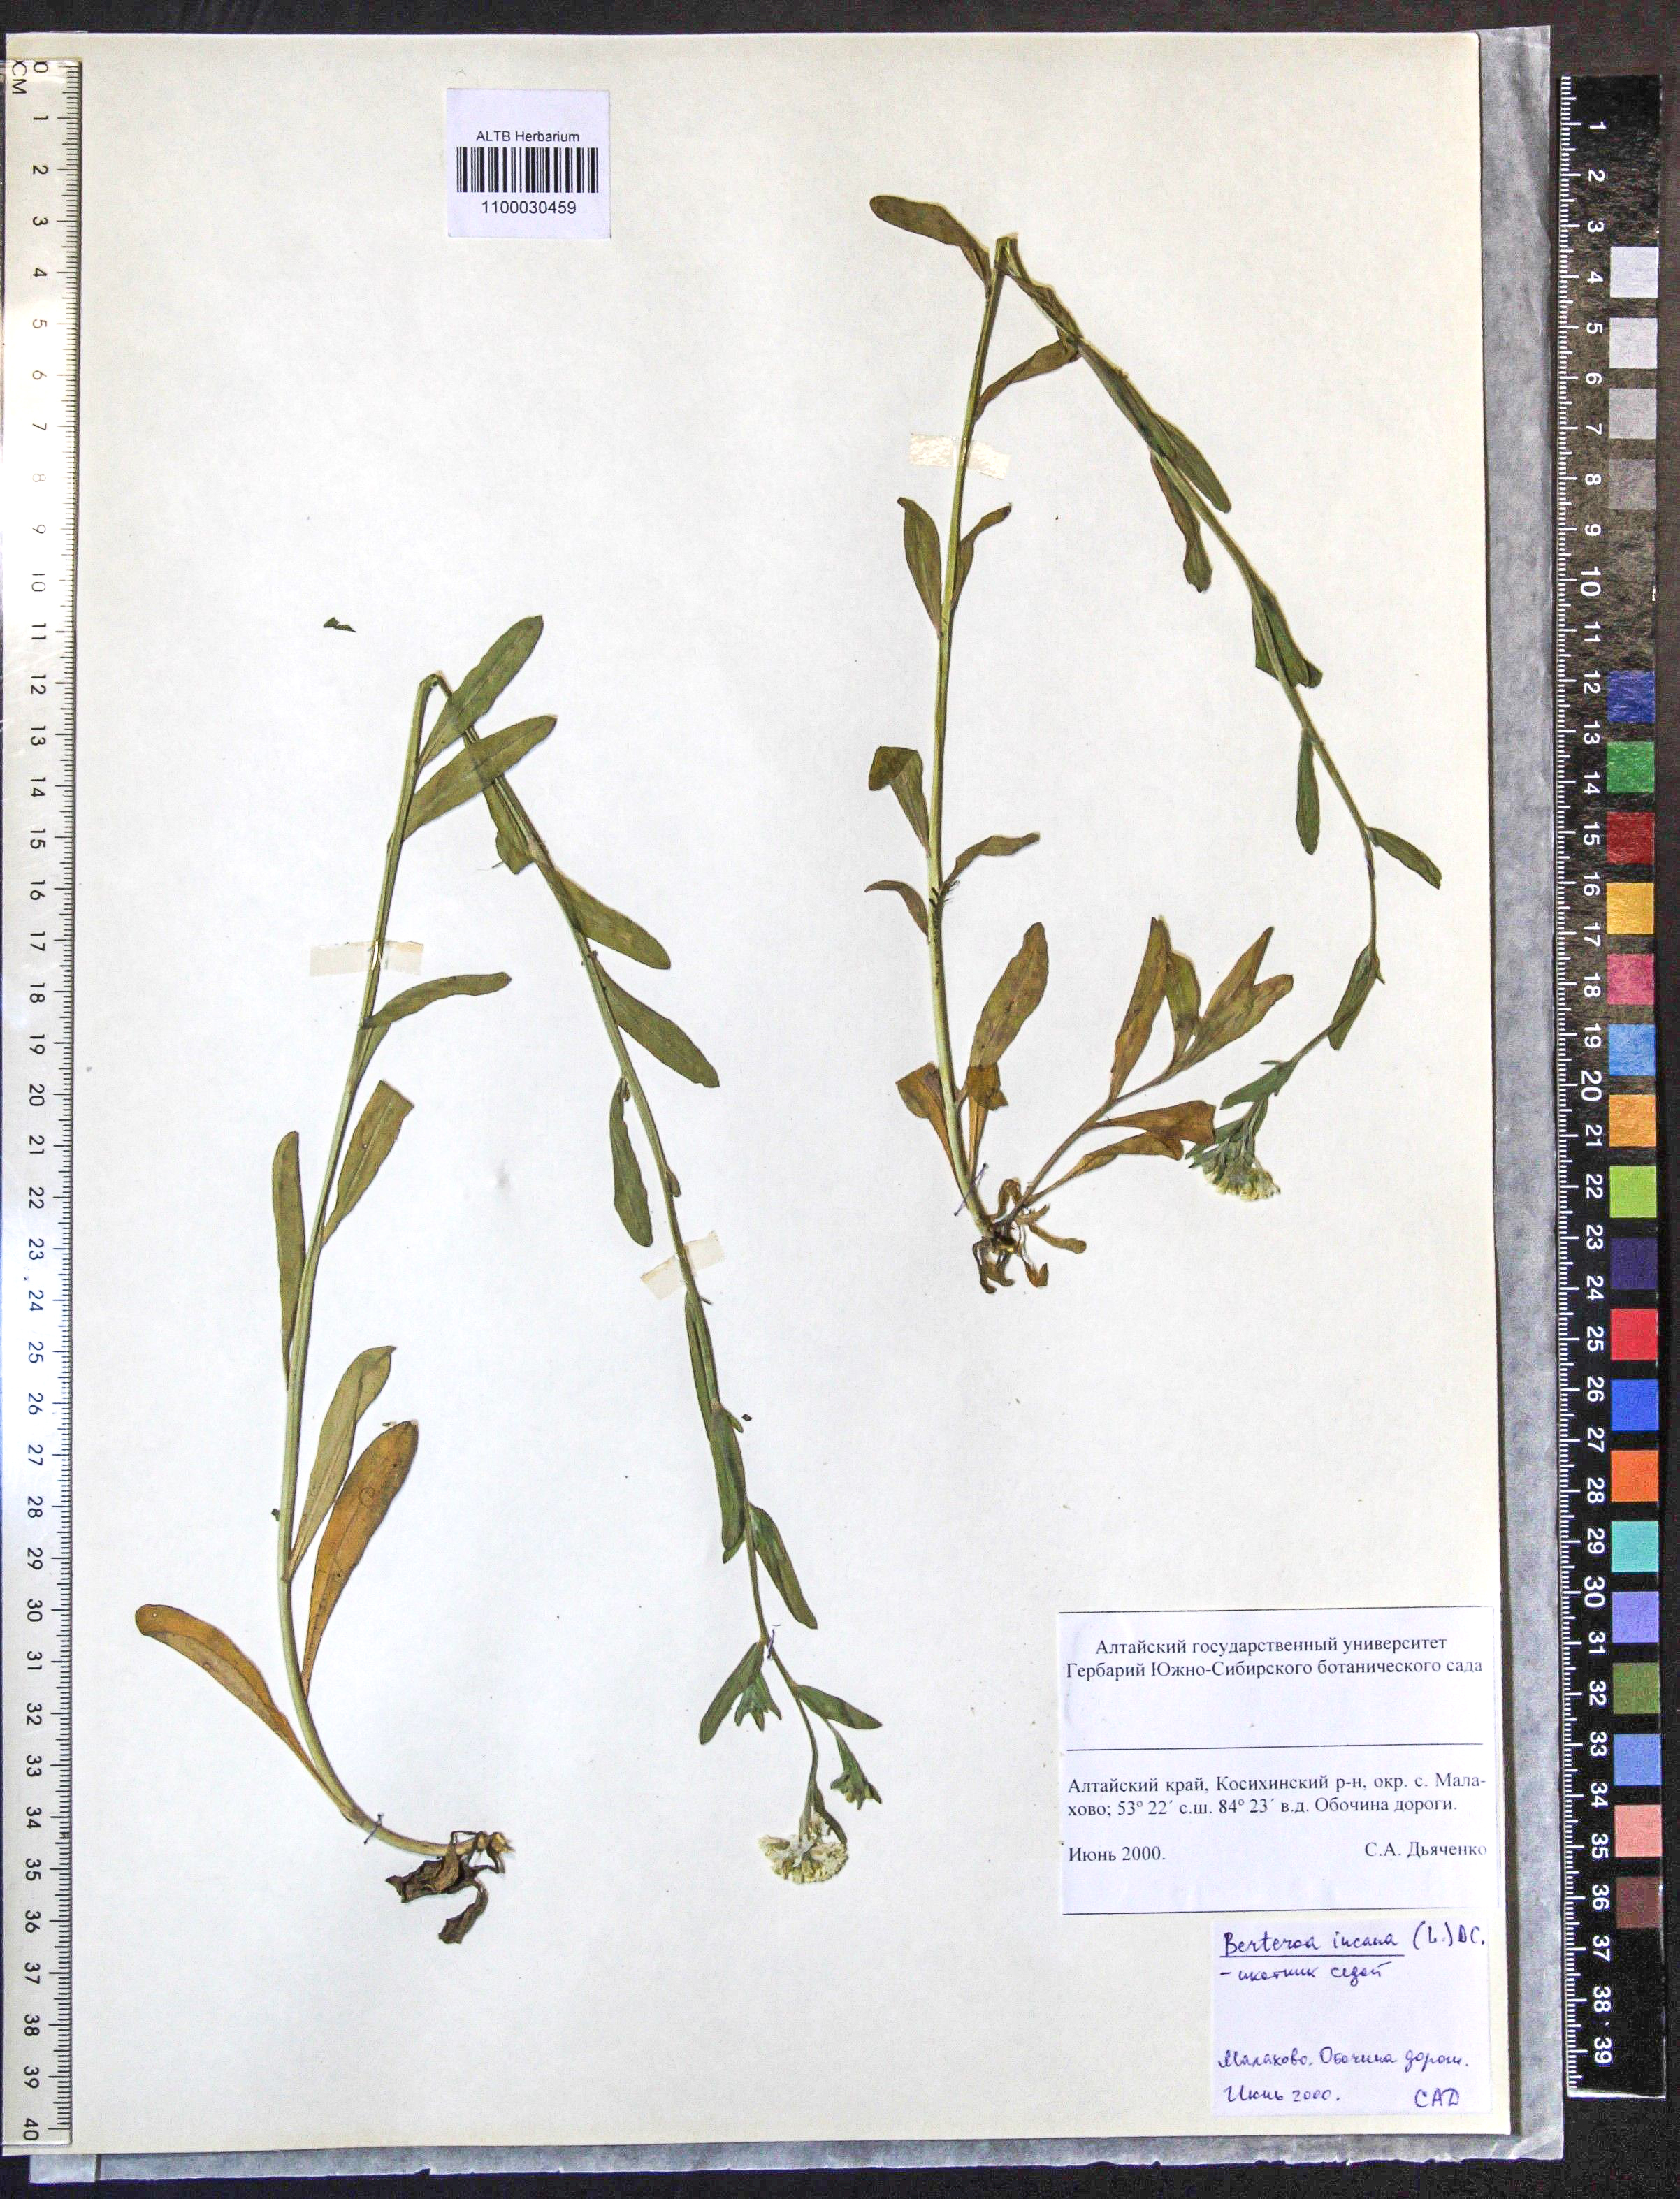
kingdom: Plantae
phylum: Tracheophyta
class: Magnoliopsida
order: Brassicales
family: Brassicaceae
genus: Berteroa
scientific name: Berteroa incana
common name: Hoary alison
